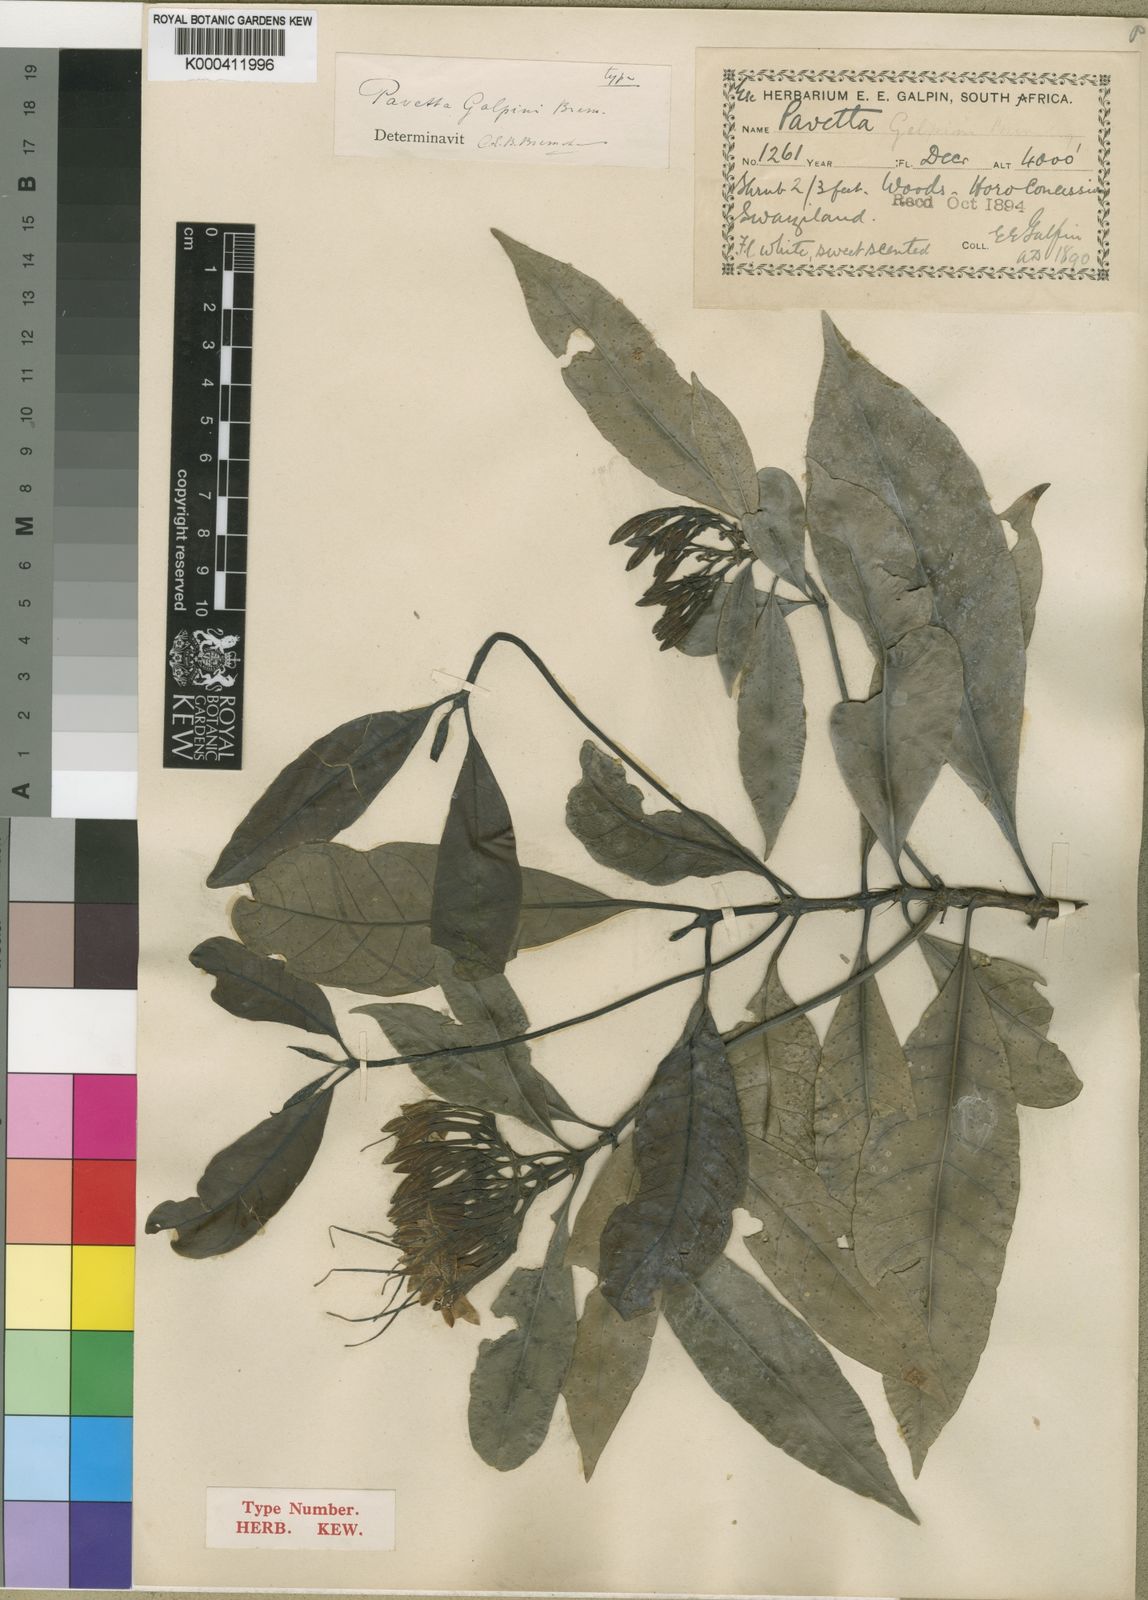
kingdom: Plantae
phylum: Tracheophyta
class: Magnoliopsida
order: Gentianales
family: Rubiaceae
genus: Pavetta
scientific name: Pavetta galpinii
